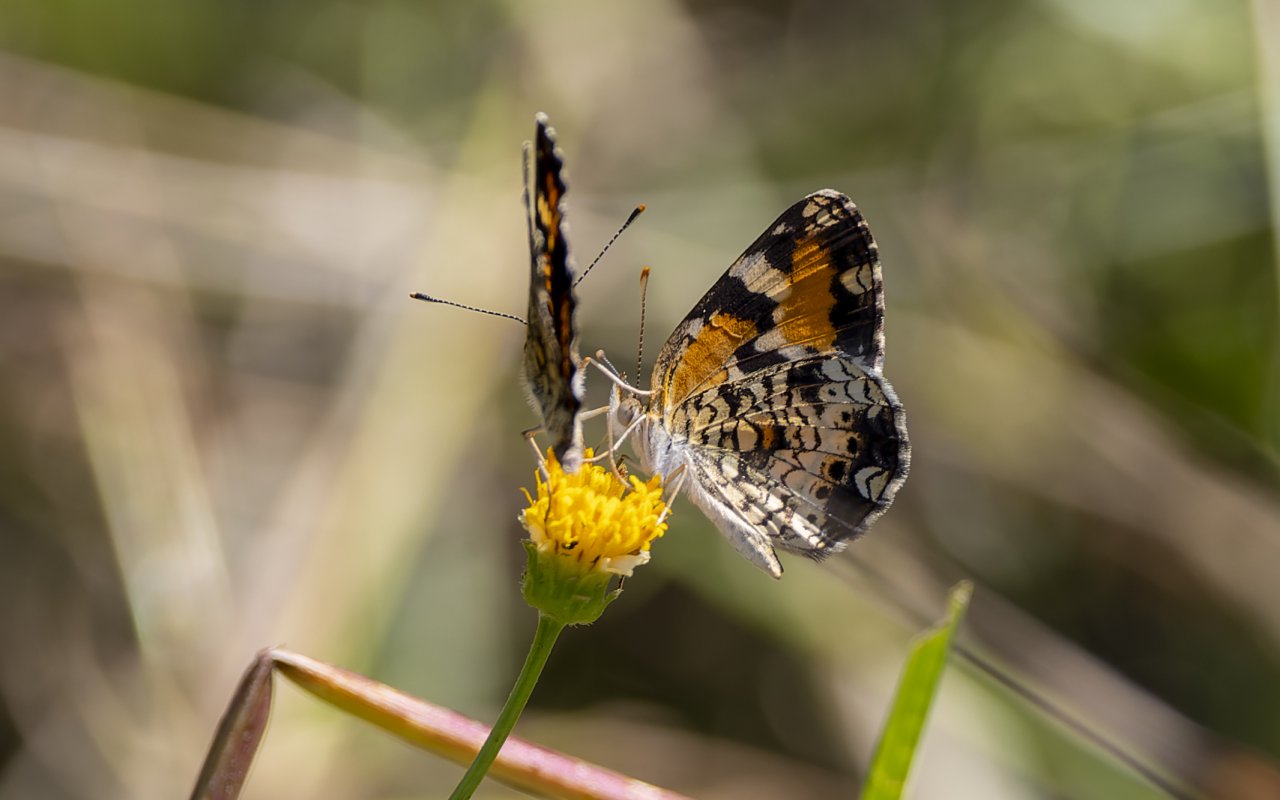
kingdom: Animalia
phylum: Arthropoda
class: Insecta
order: Lepidoptera
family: Nymphalidae
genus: Phyciodes
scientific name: Phyciodes tharos
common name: Pearl Crescent
